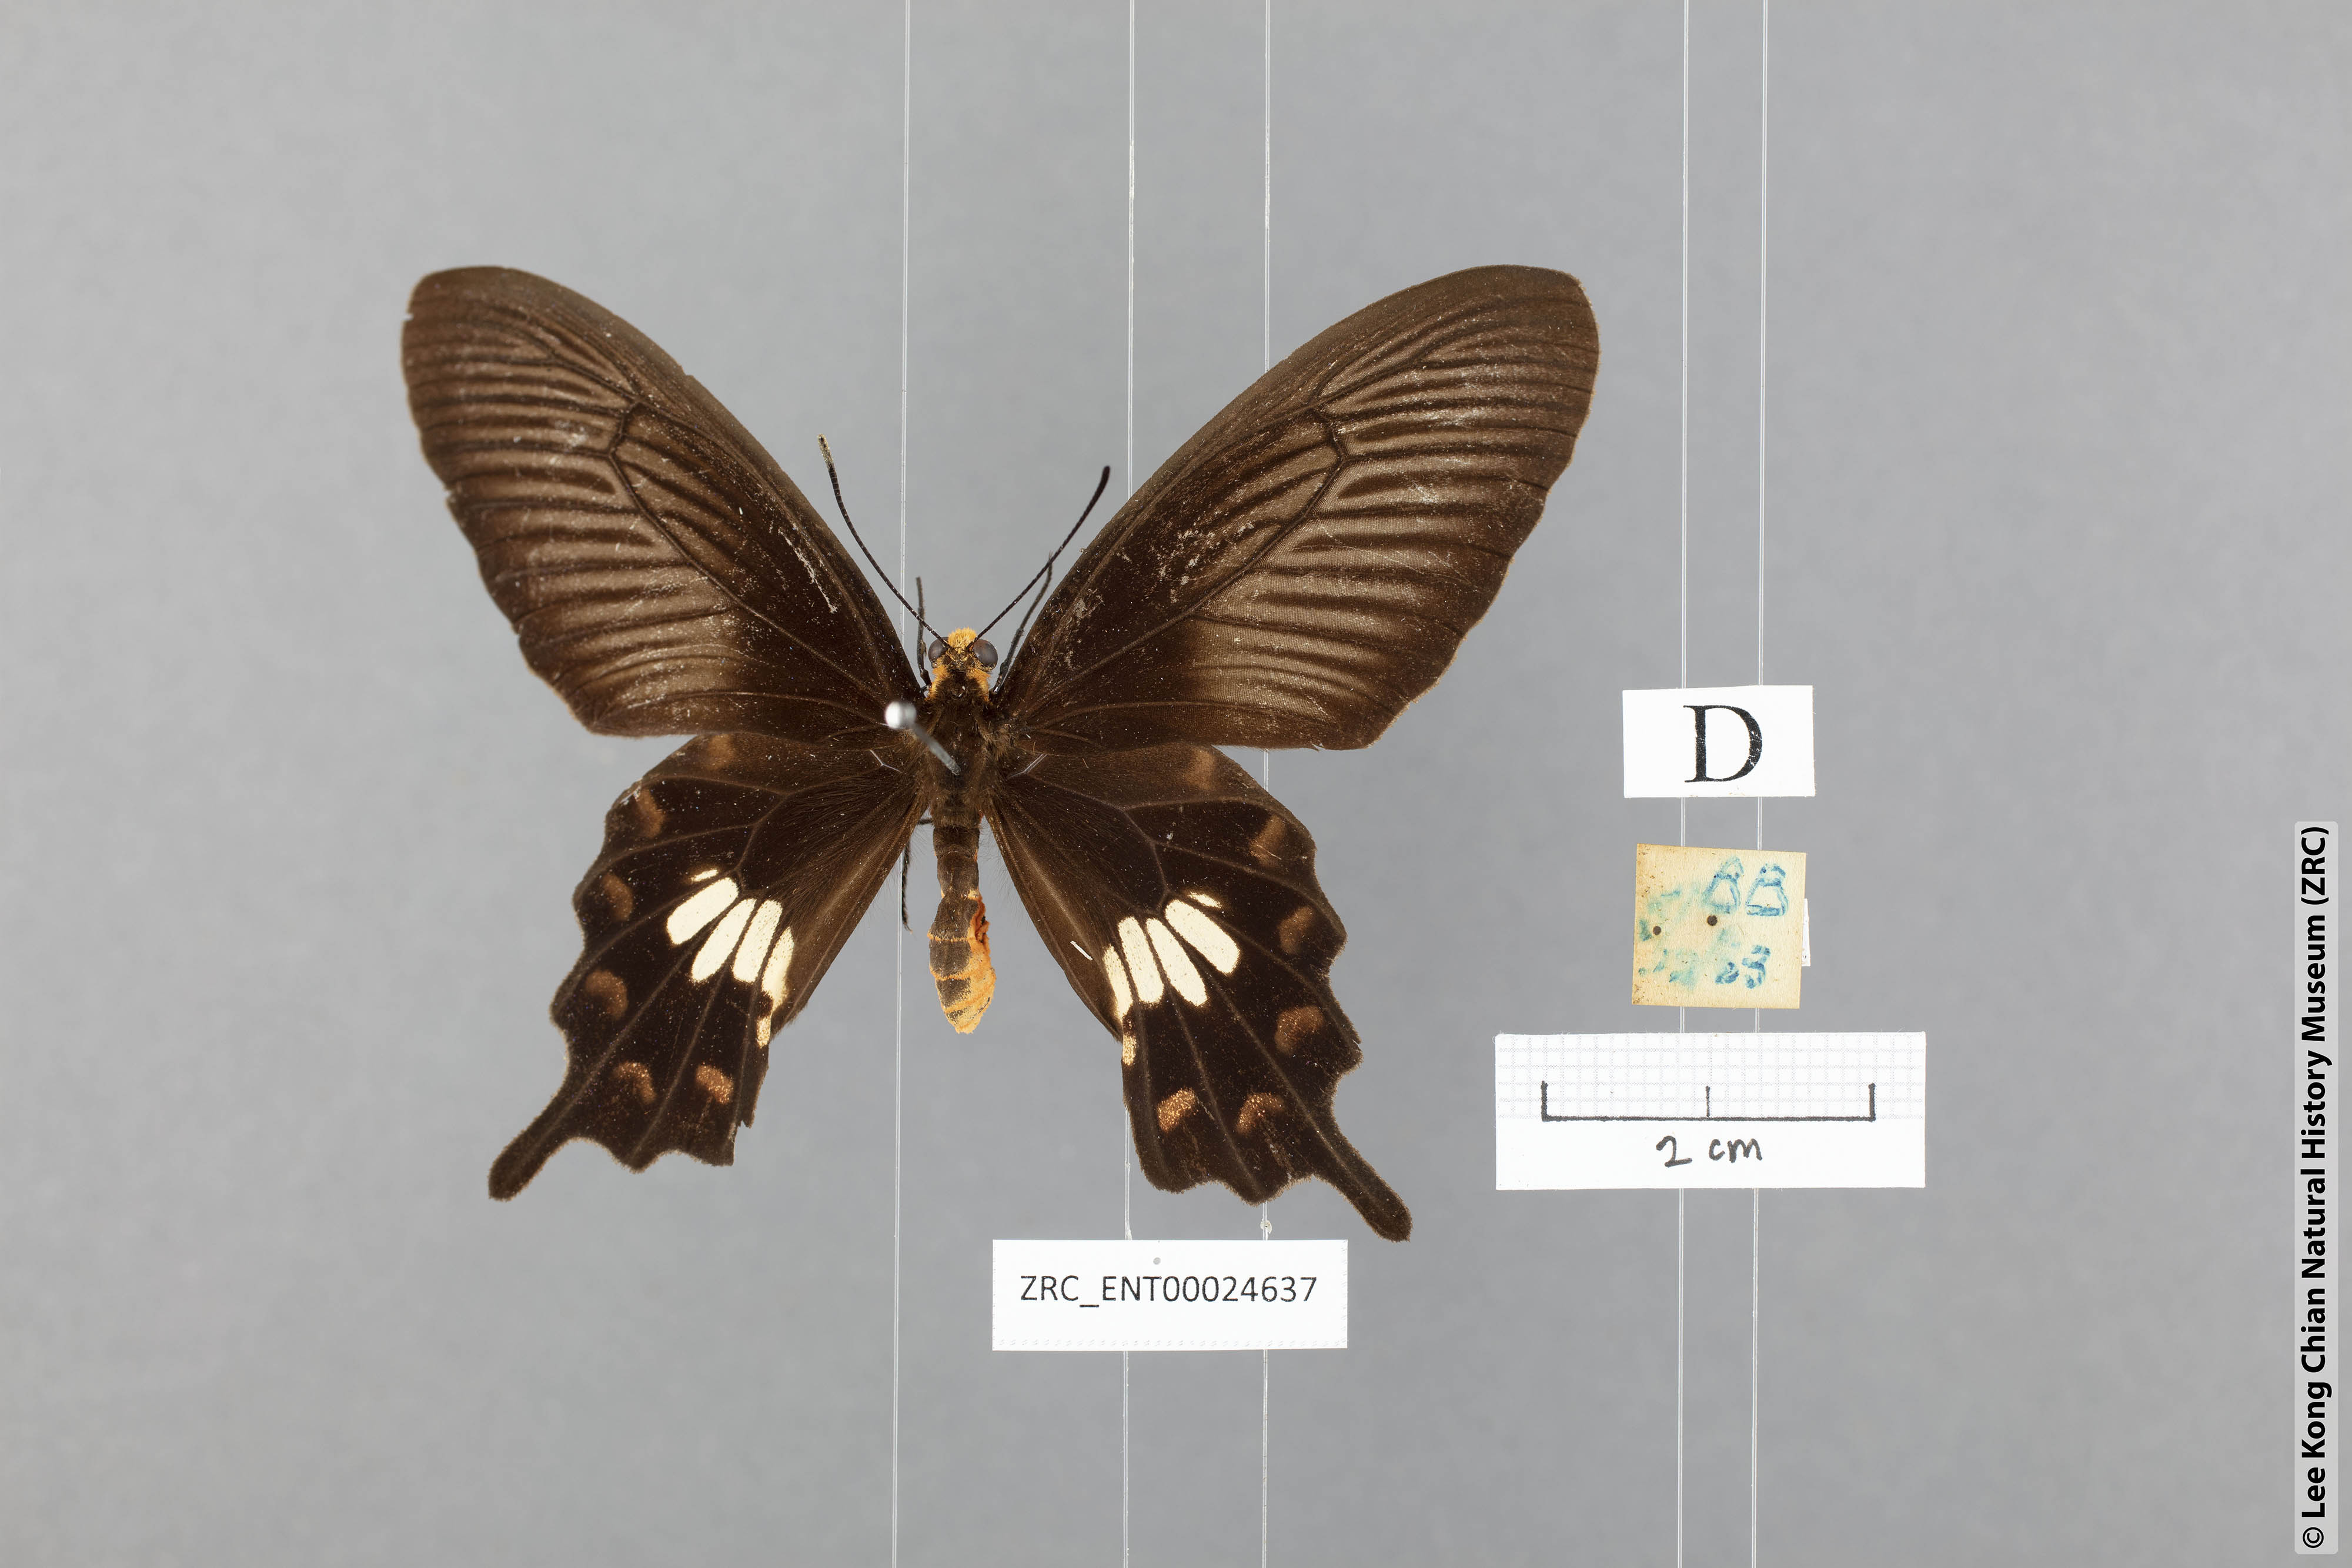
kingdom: Animalia
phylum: Arthropoda
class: Insecta
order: Lepidoptera
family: Papilionidae
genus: Pachliopta
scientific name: Pachliopta aristolochiae
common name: Common rose
